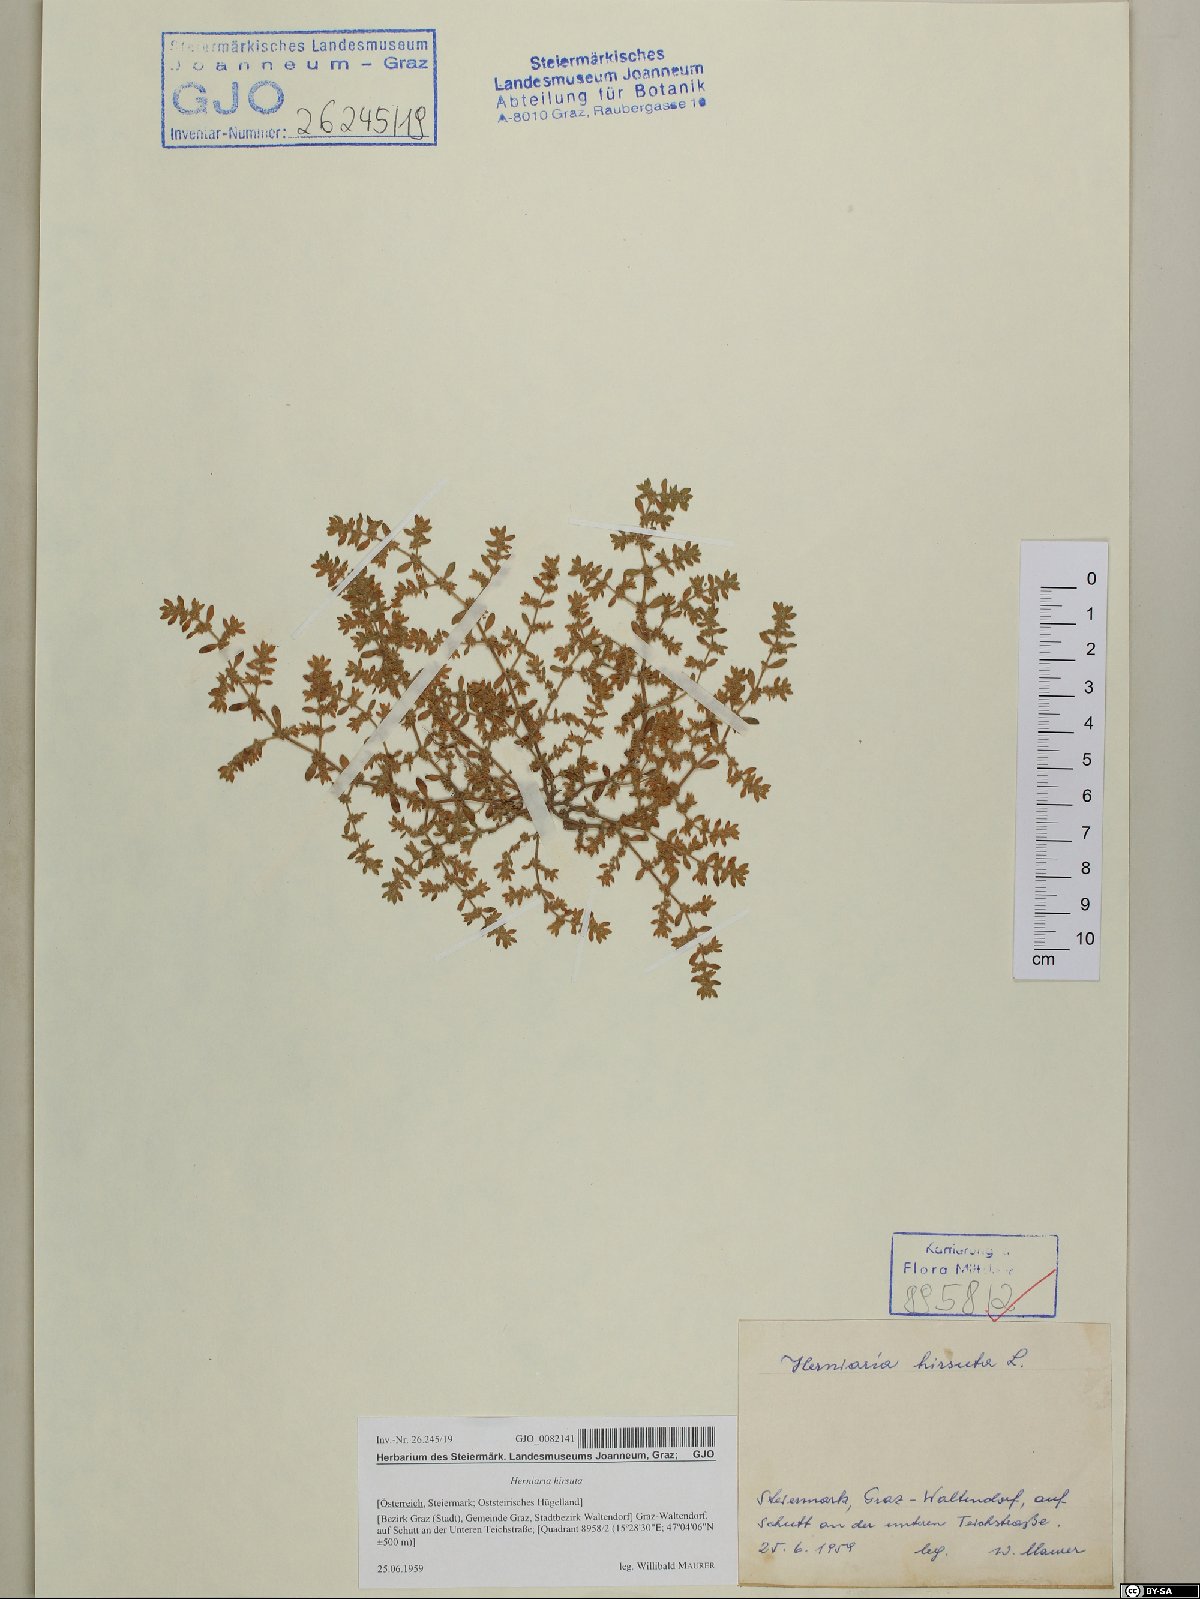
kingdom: Plantae
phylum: Tracheophyta
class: Magnoliopsida
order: Caryophyllales
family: Caryophyllaceae
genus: Herniaria
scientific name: Herniaria hirsuta
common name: Hairy rupturewort
